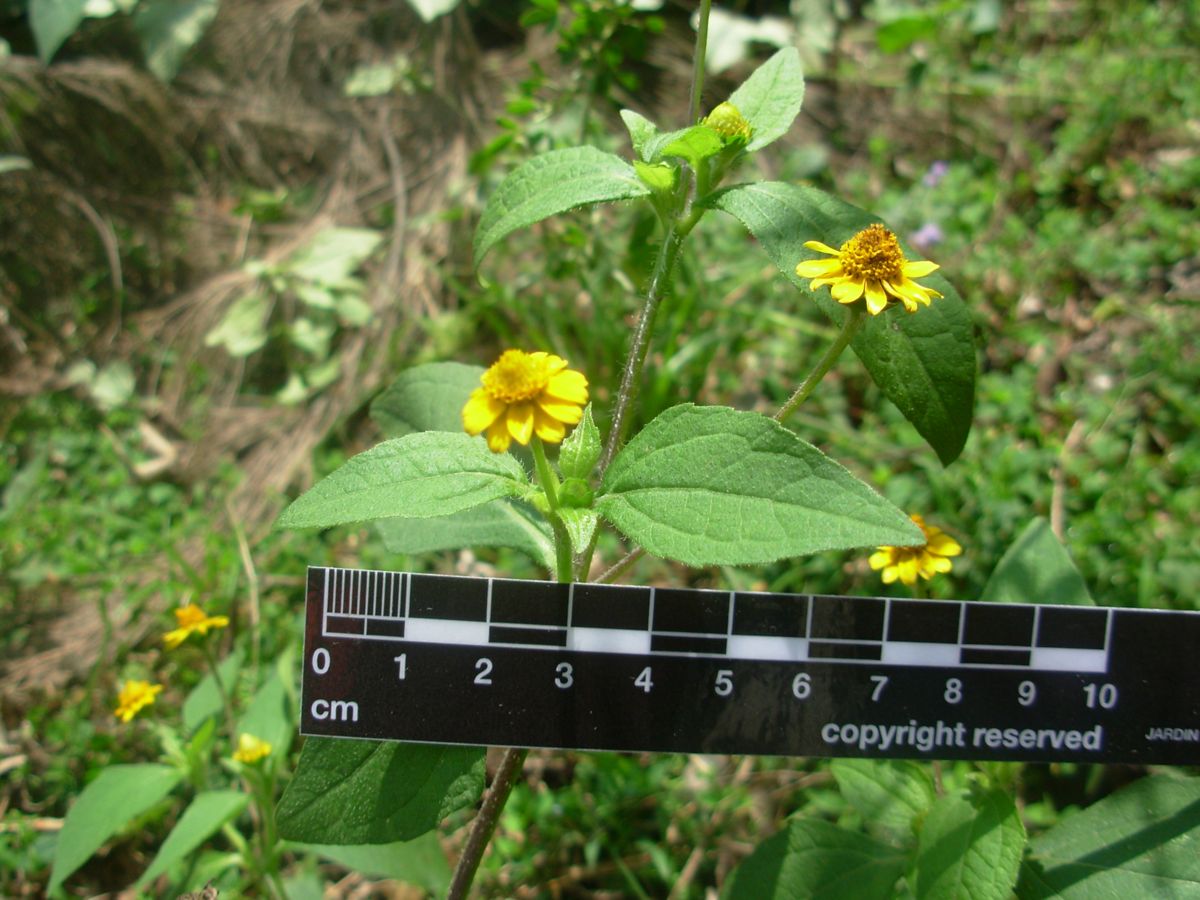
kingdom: Plantae
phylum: Tracheophyta
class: Magnoliopsida
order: Asterales
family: Asteraceae
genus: Melampodium
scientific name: Melampodium divaricatum
